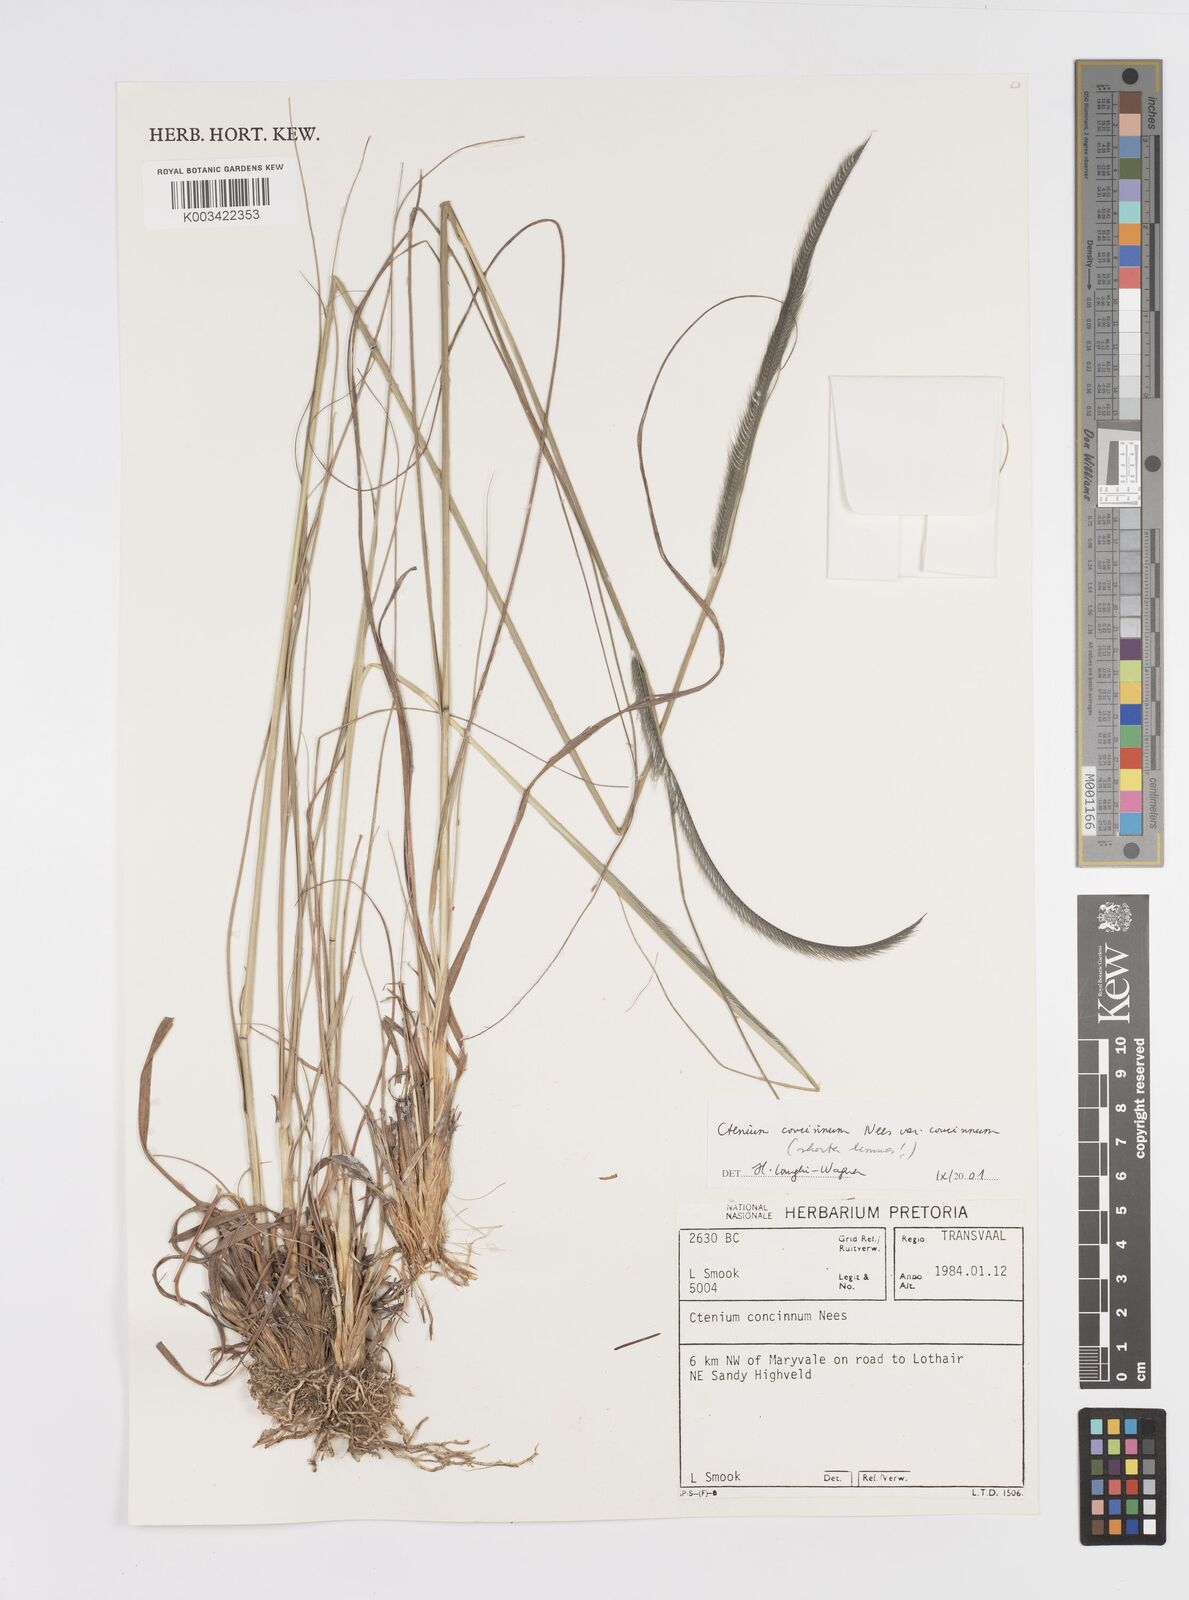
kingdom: Plantae
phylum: Tracheophyta
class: Liliopsida
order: Poales
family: Poaceae
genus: Ctenium
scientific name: Ctenium concinnum
